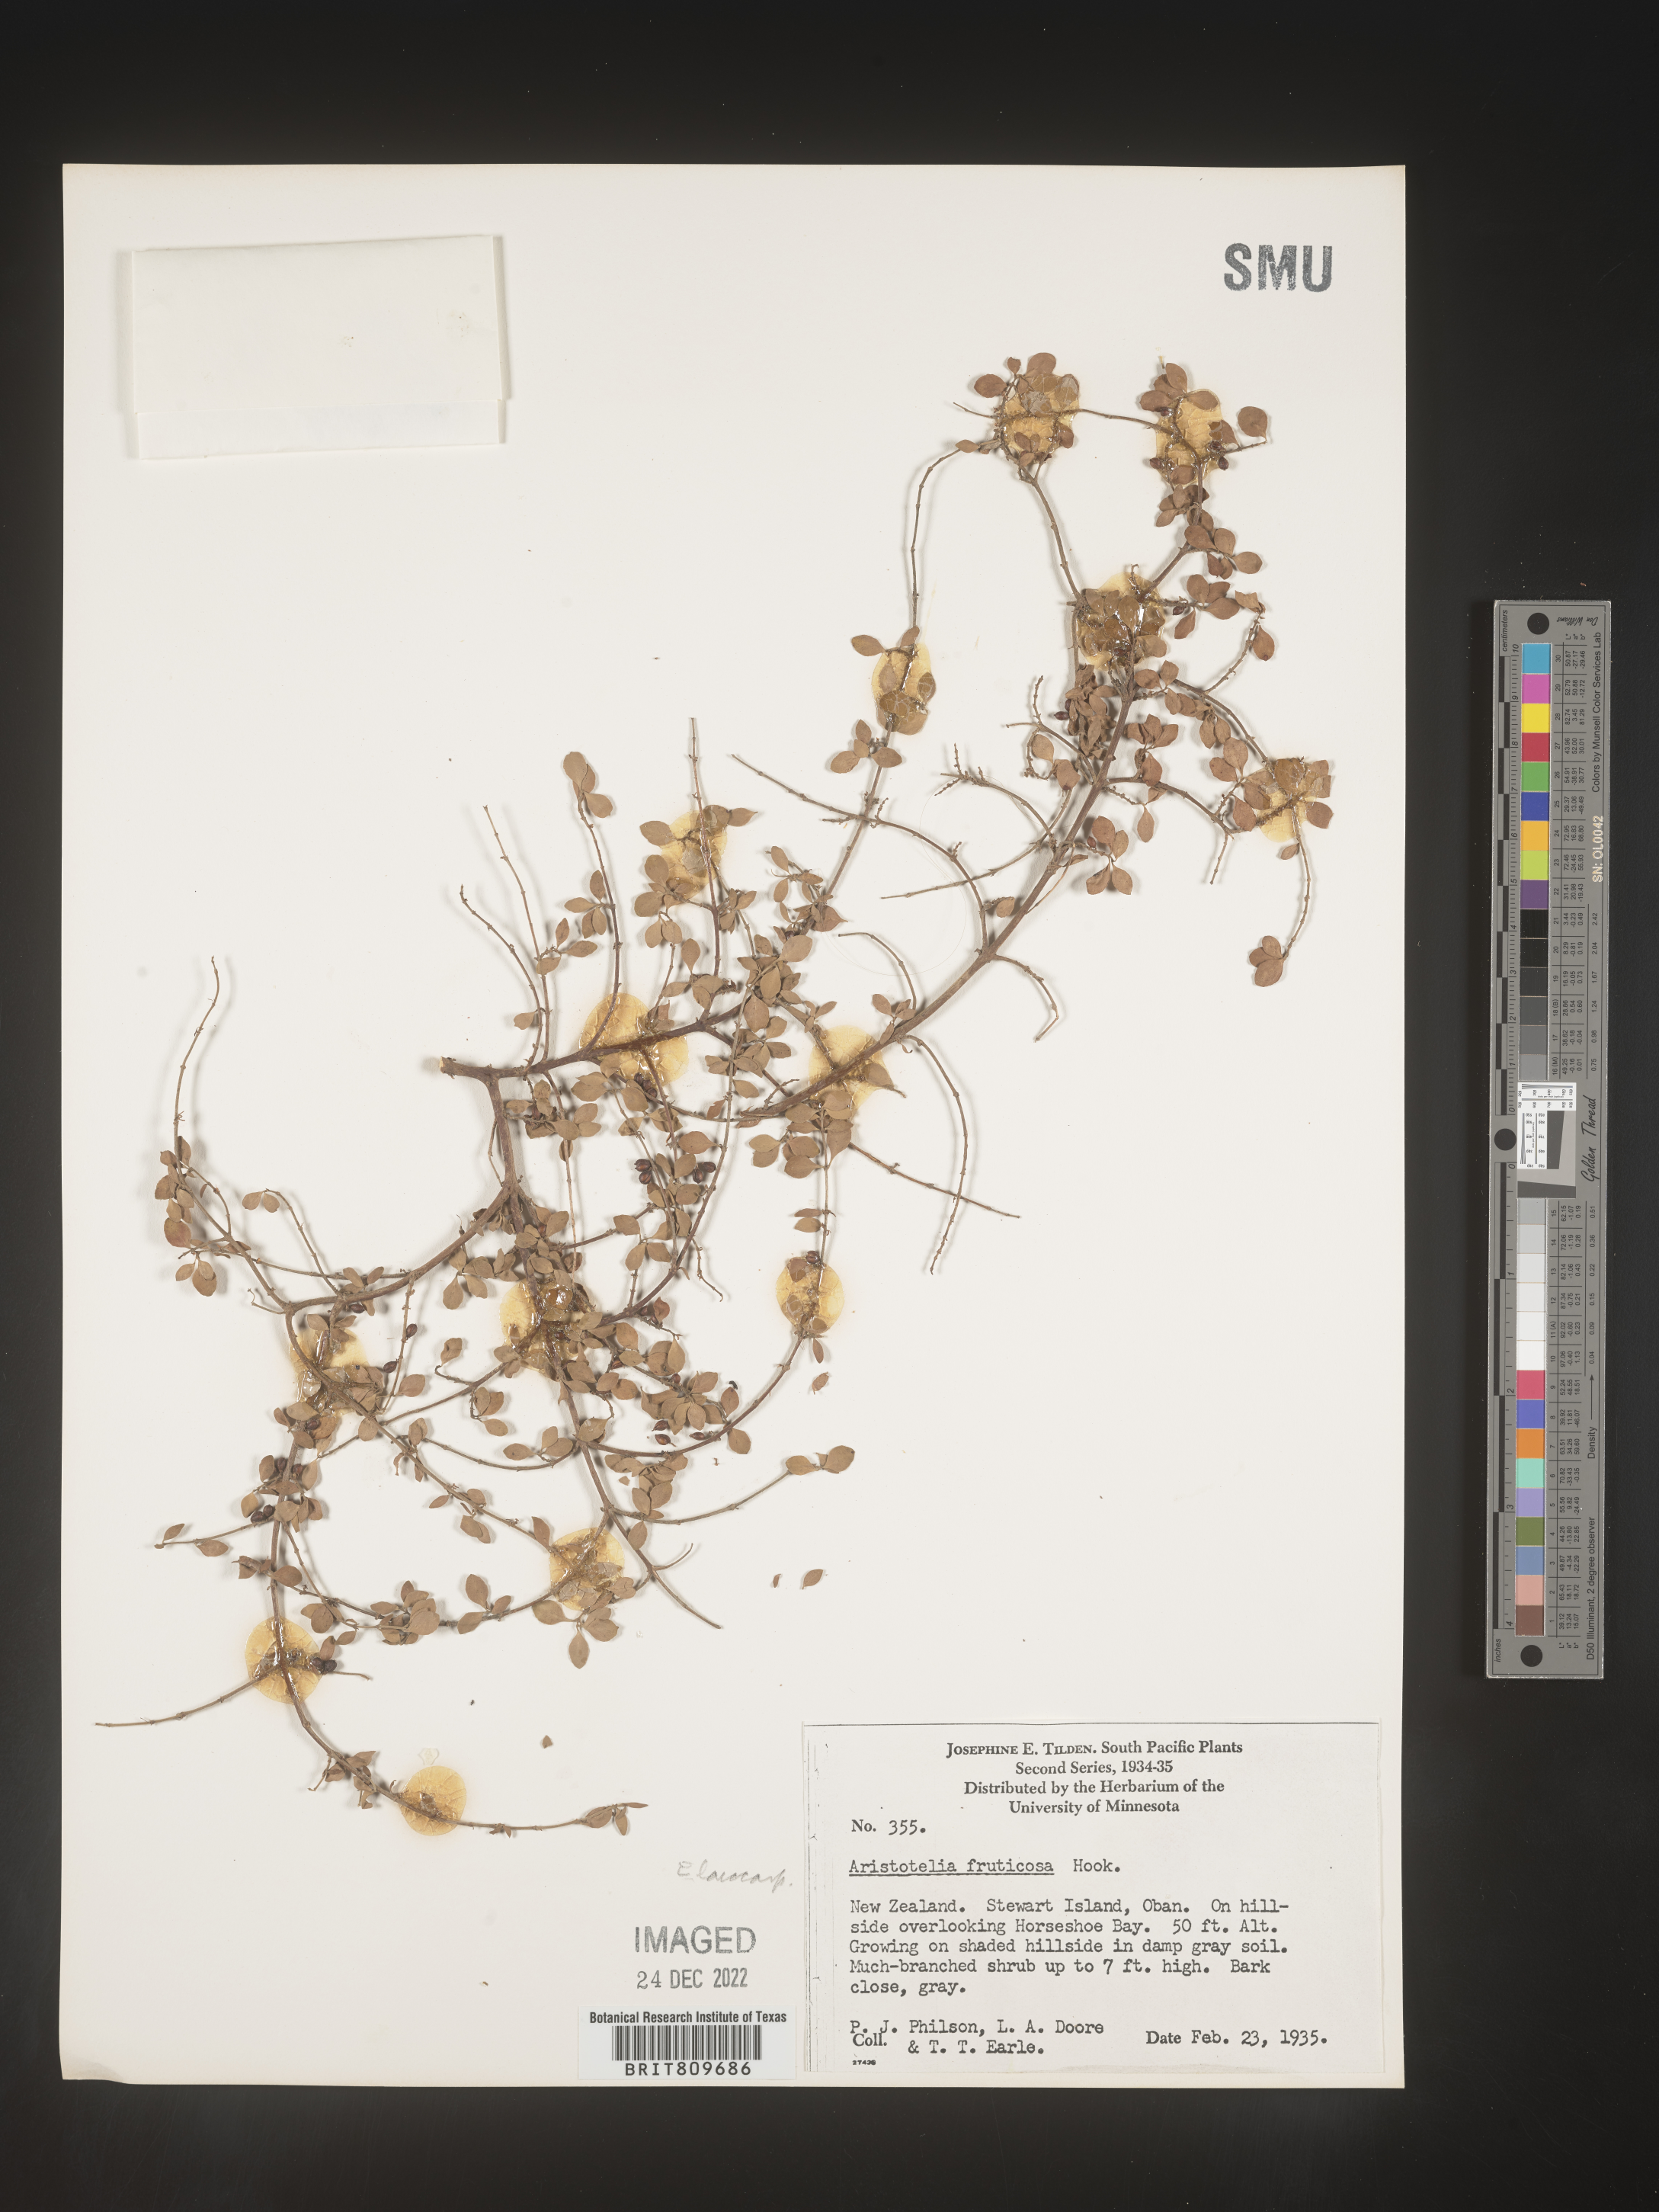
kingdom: Plantae
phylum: Tracheophyta
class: Magnoliopsida
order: Oxalidales
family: Elaeocarpaceae
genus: Aristotelia
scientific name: Aristotelia
